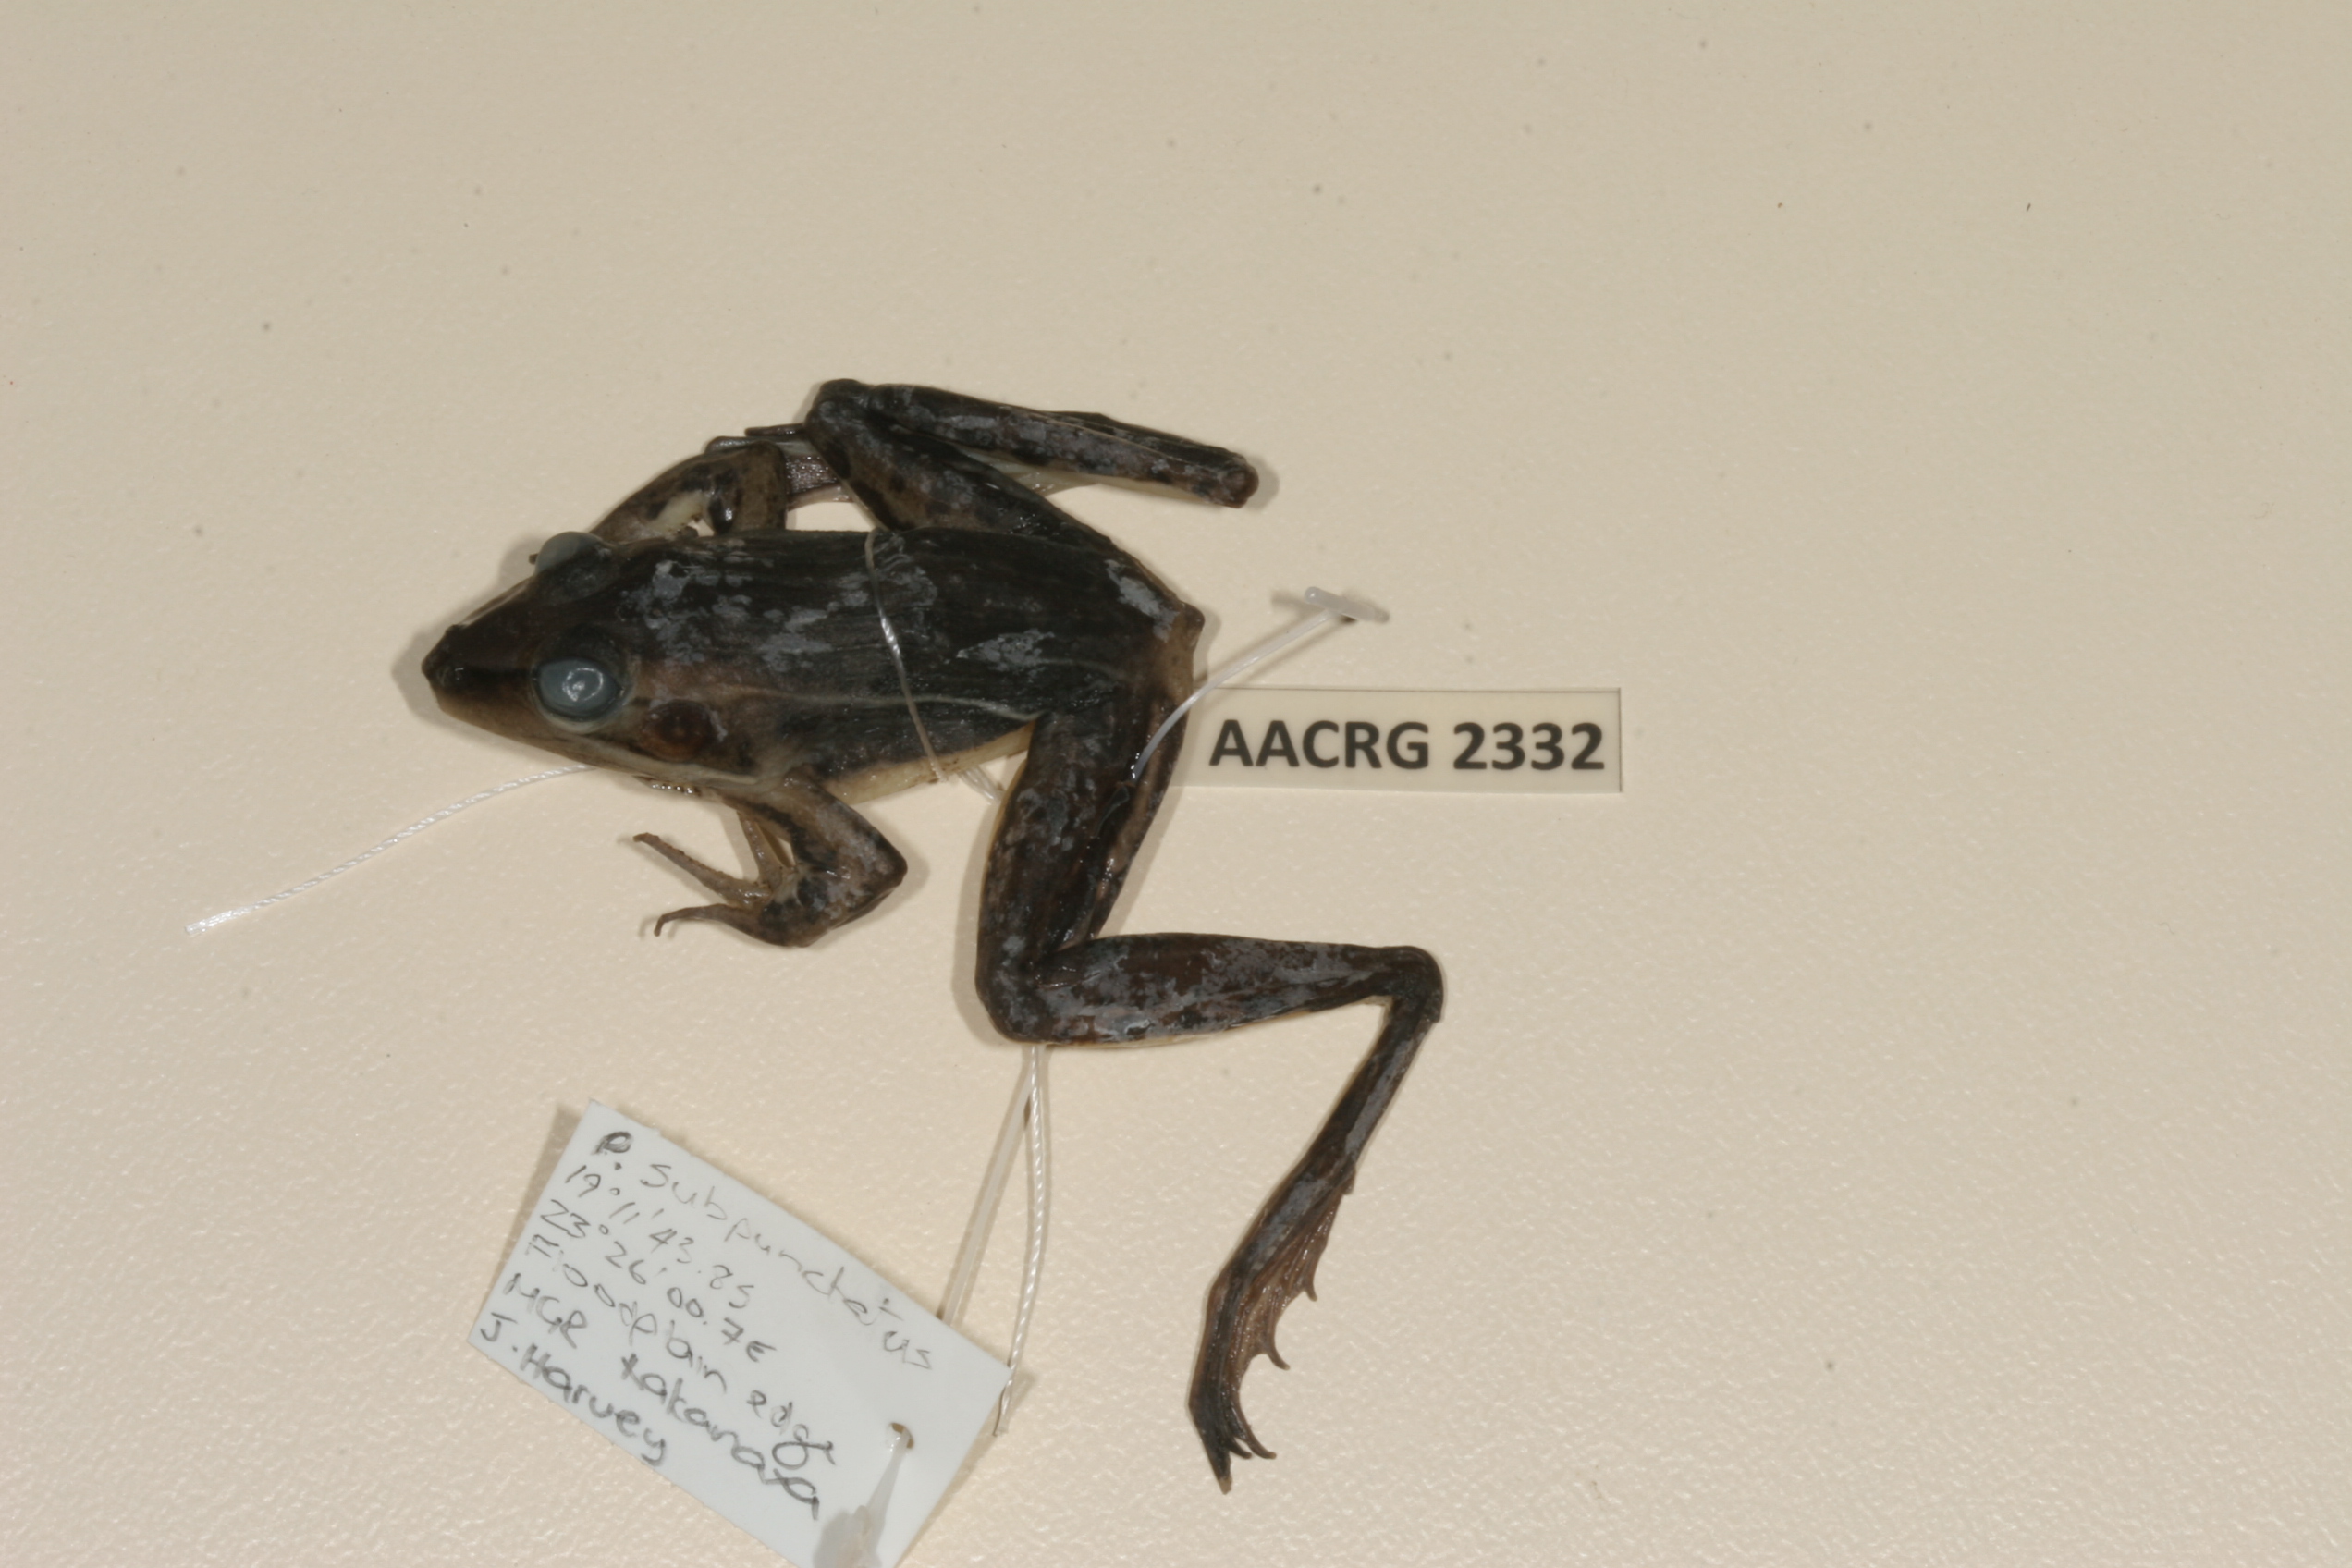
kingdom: Animalia
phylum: Chordata
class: Amphibia
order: Anura
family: Ptychadenidae
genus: Ptychadena
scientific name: Ptychadena subpunctata
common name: Bocage's grassland frog
